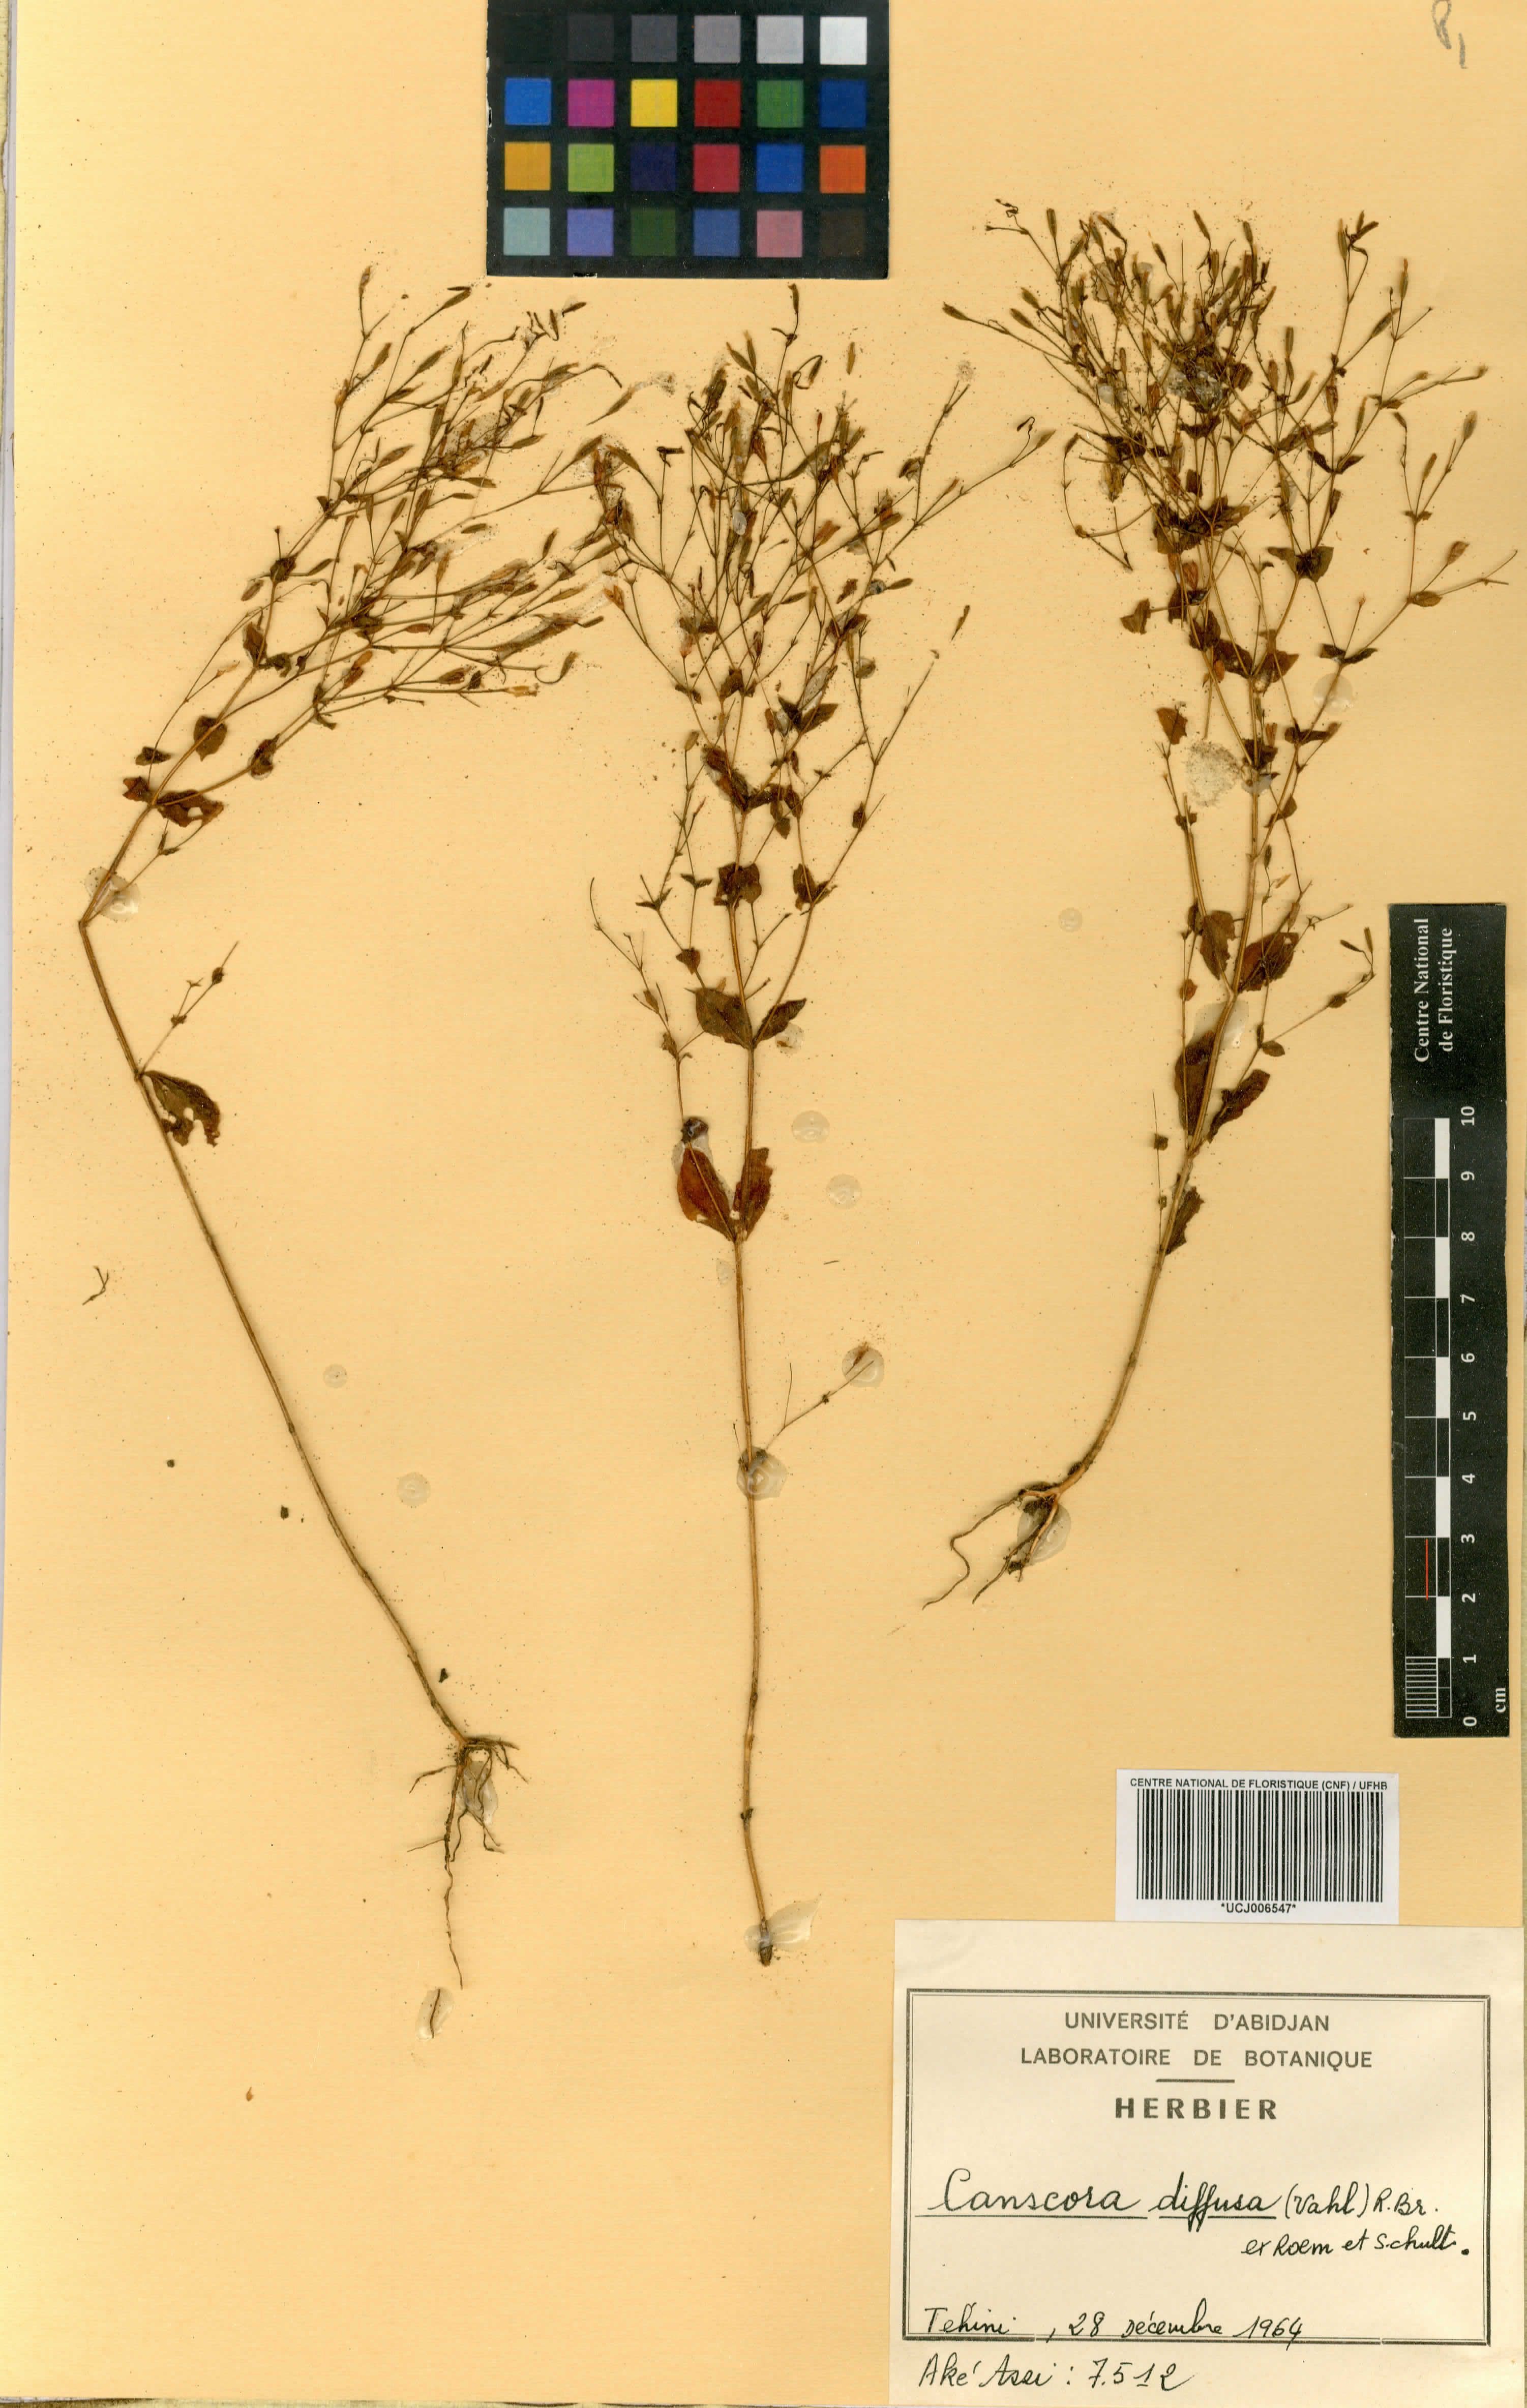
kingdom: Plantae
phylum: Tracheophyta
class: Magnoliopsida
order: Gentianales
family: Gentianaceae
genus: Canscora
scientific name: Canscora diffusa
